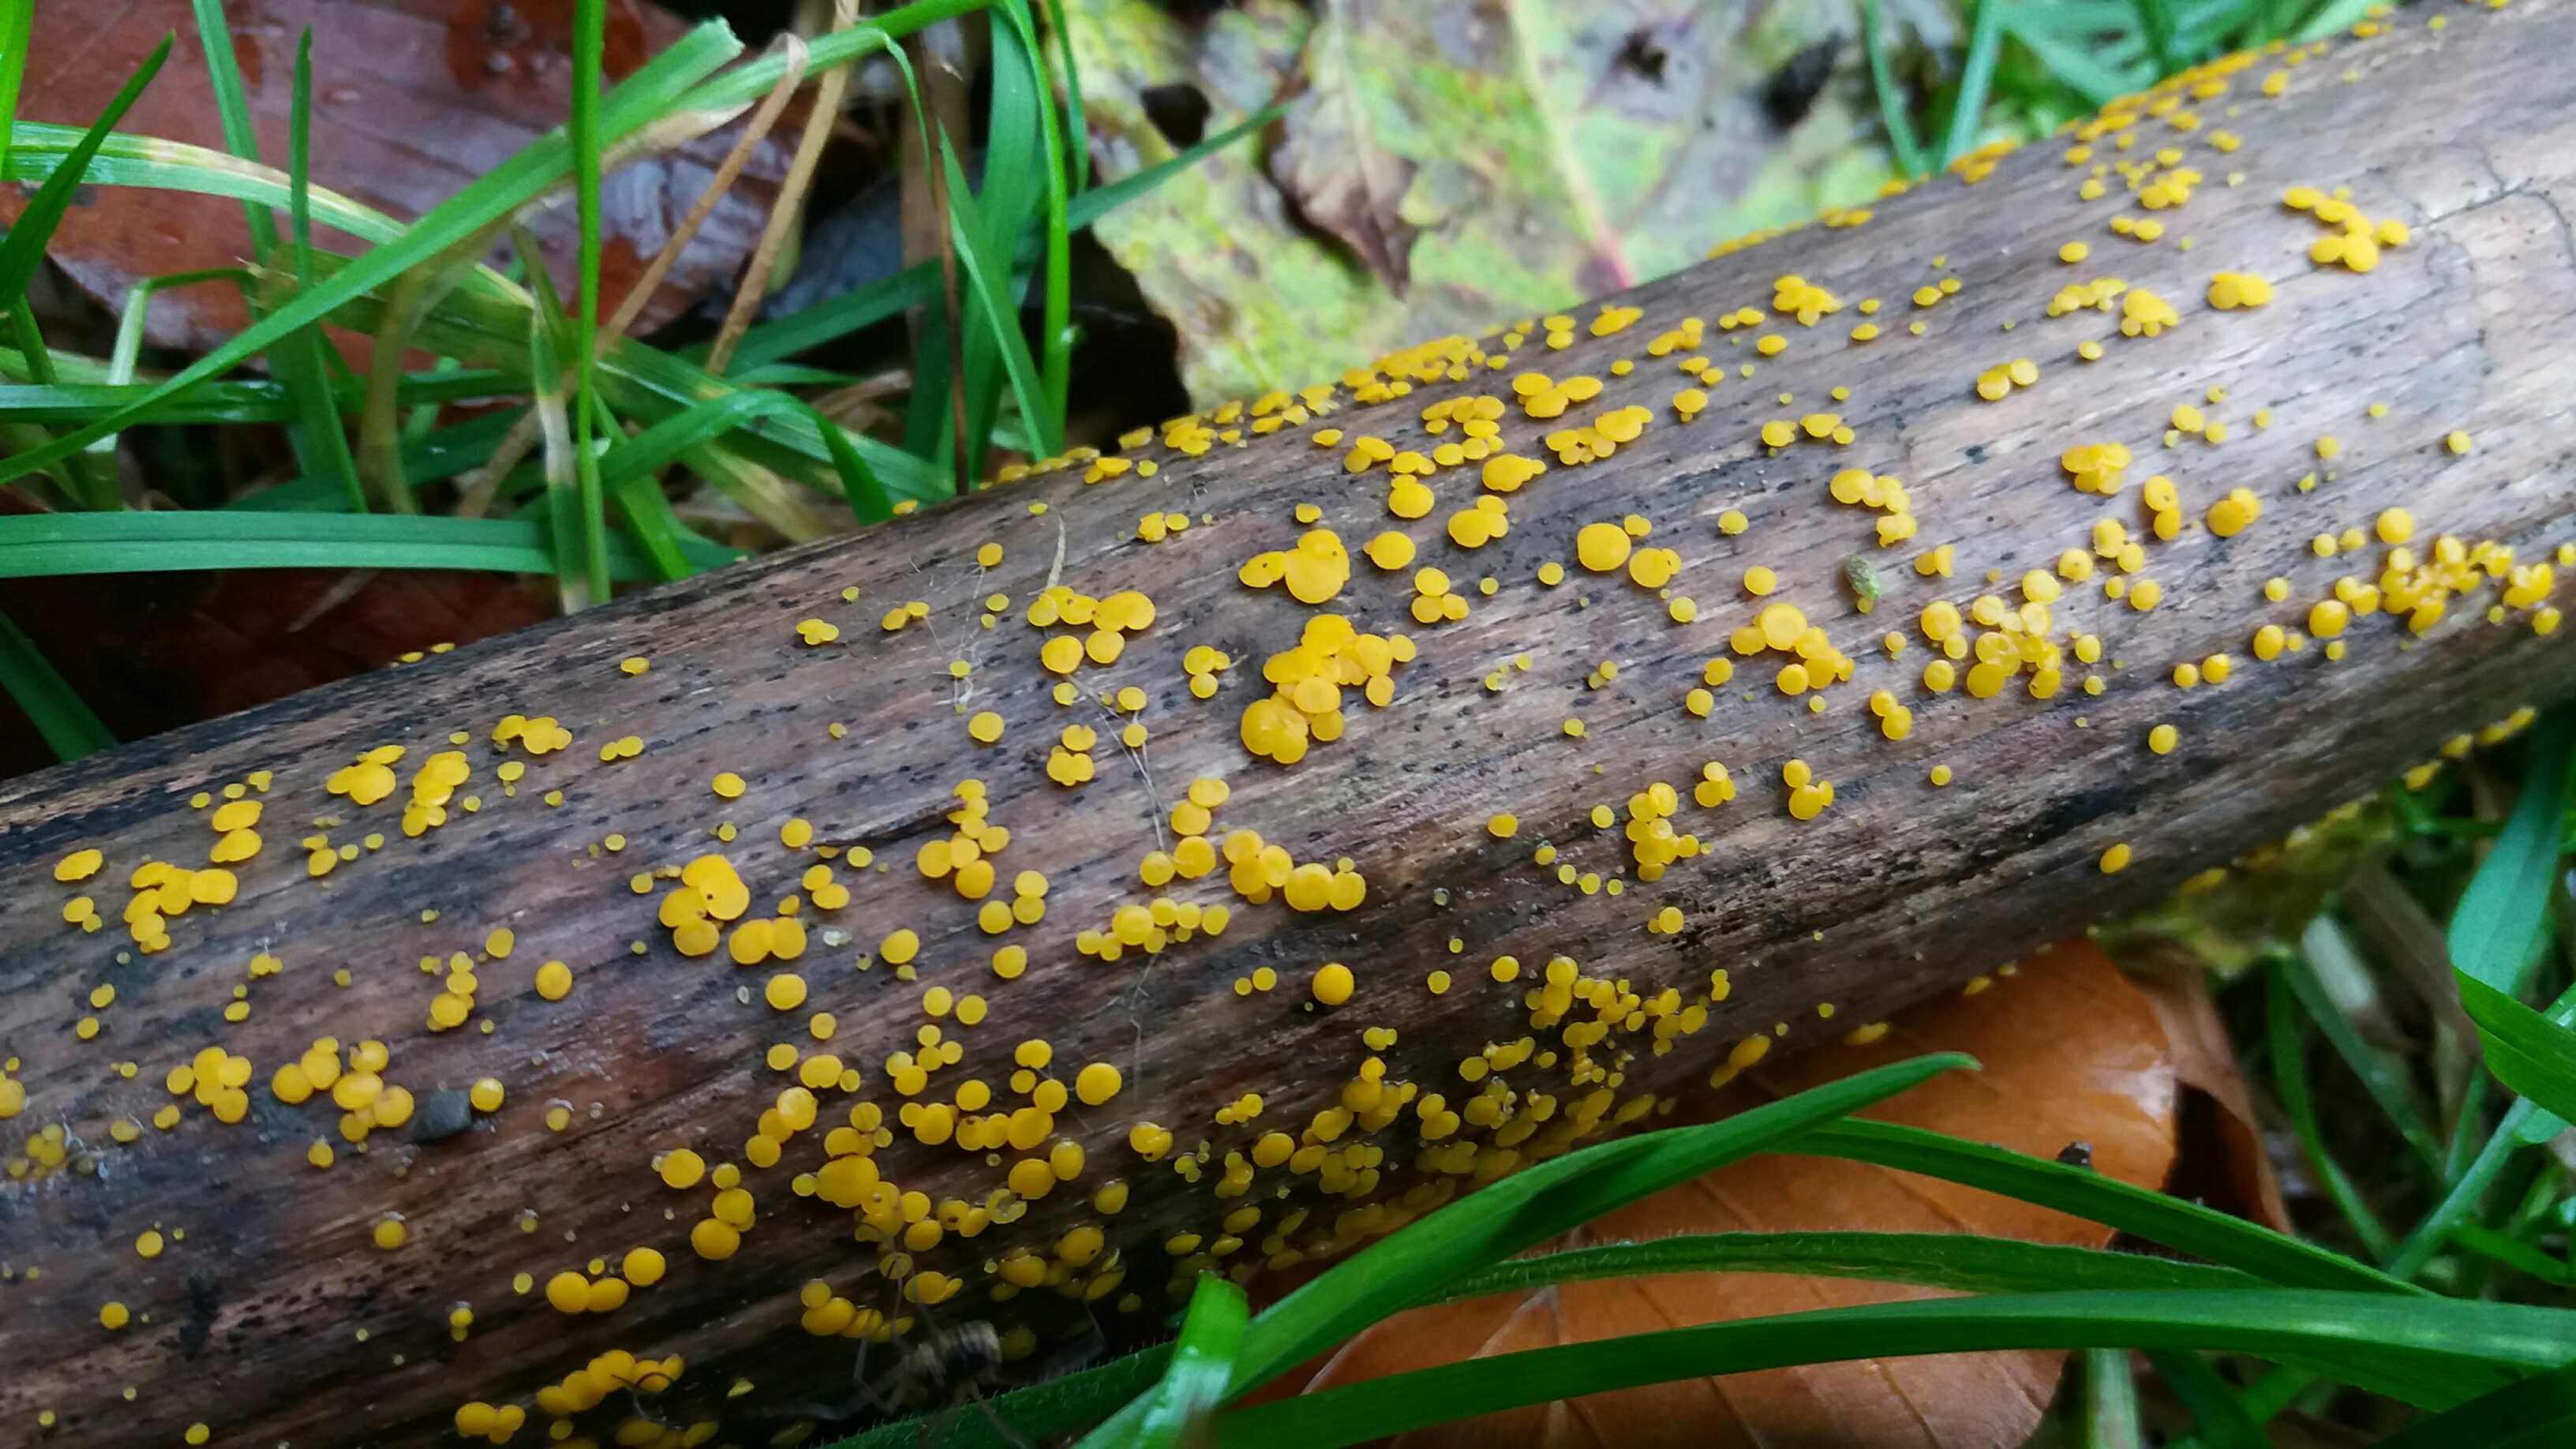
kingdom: Fungi
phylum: Ascomycota
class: Leotiomycetes
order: Helotiales
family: Pezizellaceae
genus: Calycina
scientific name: Calycina citrina
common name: almindelig gulskive
